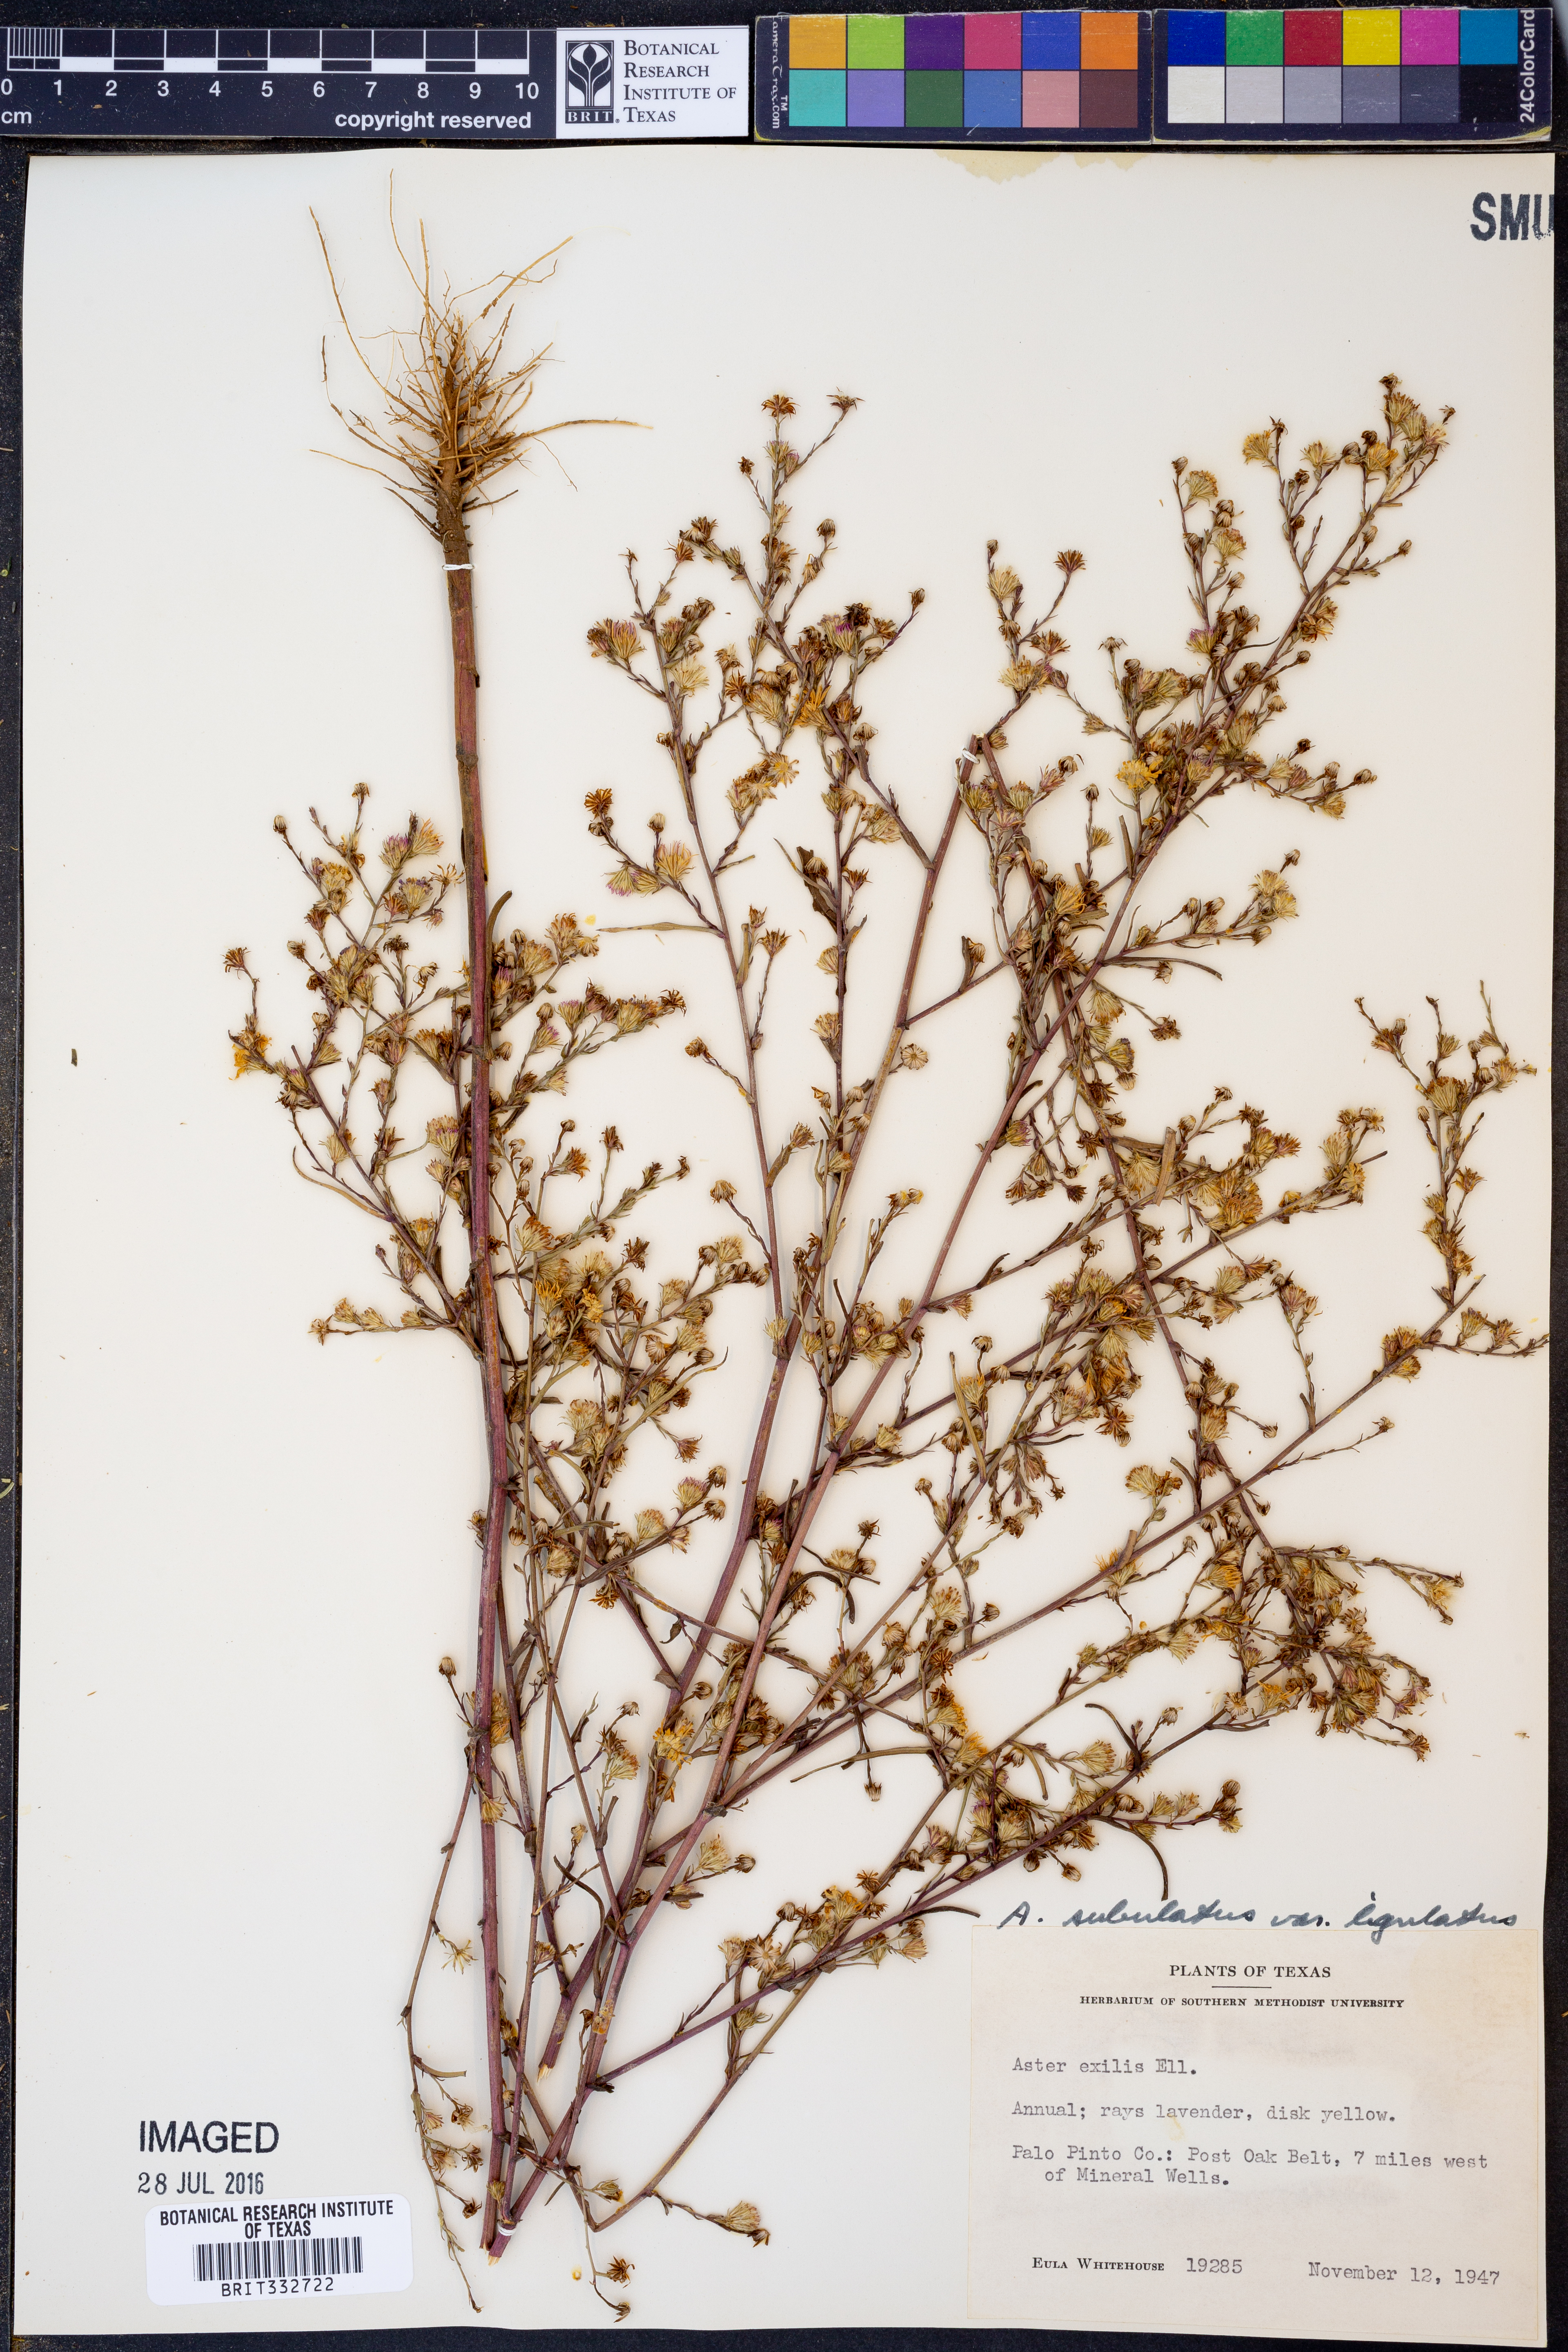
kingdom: Plantae
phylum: Tracheophyta
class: Magnoliopsida
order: Asterales
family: Asteraceae
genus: Symphyotrichum
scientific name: Symphyotrichum subulatum
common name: Annual saltmarsh aster
